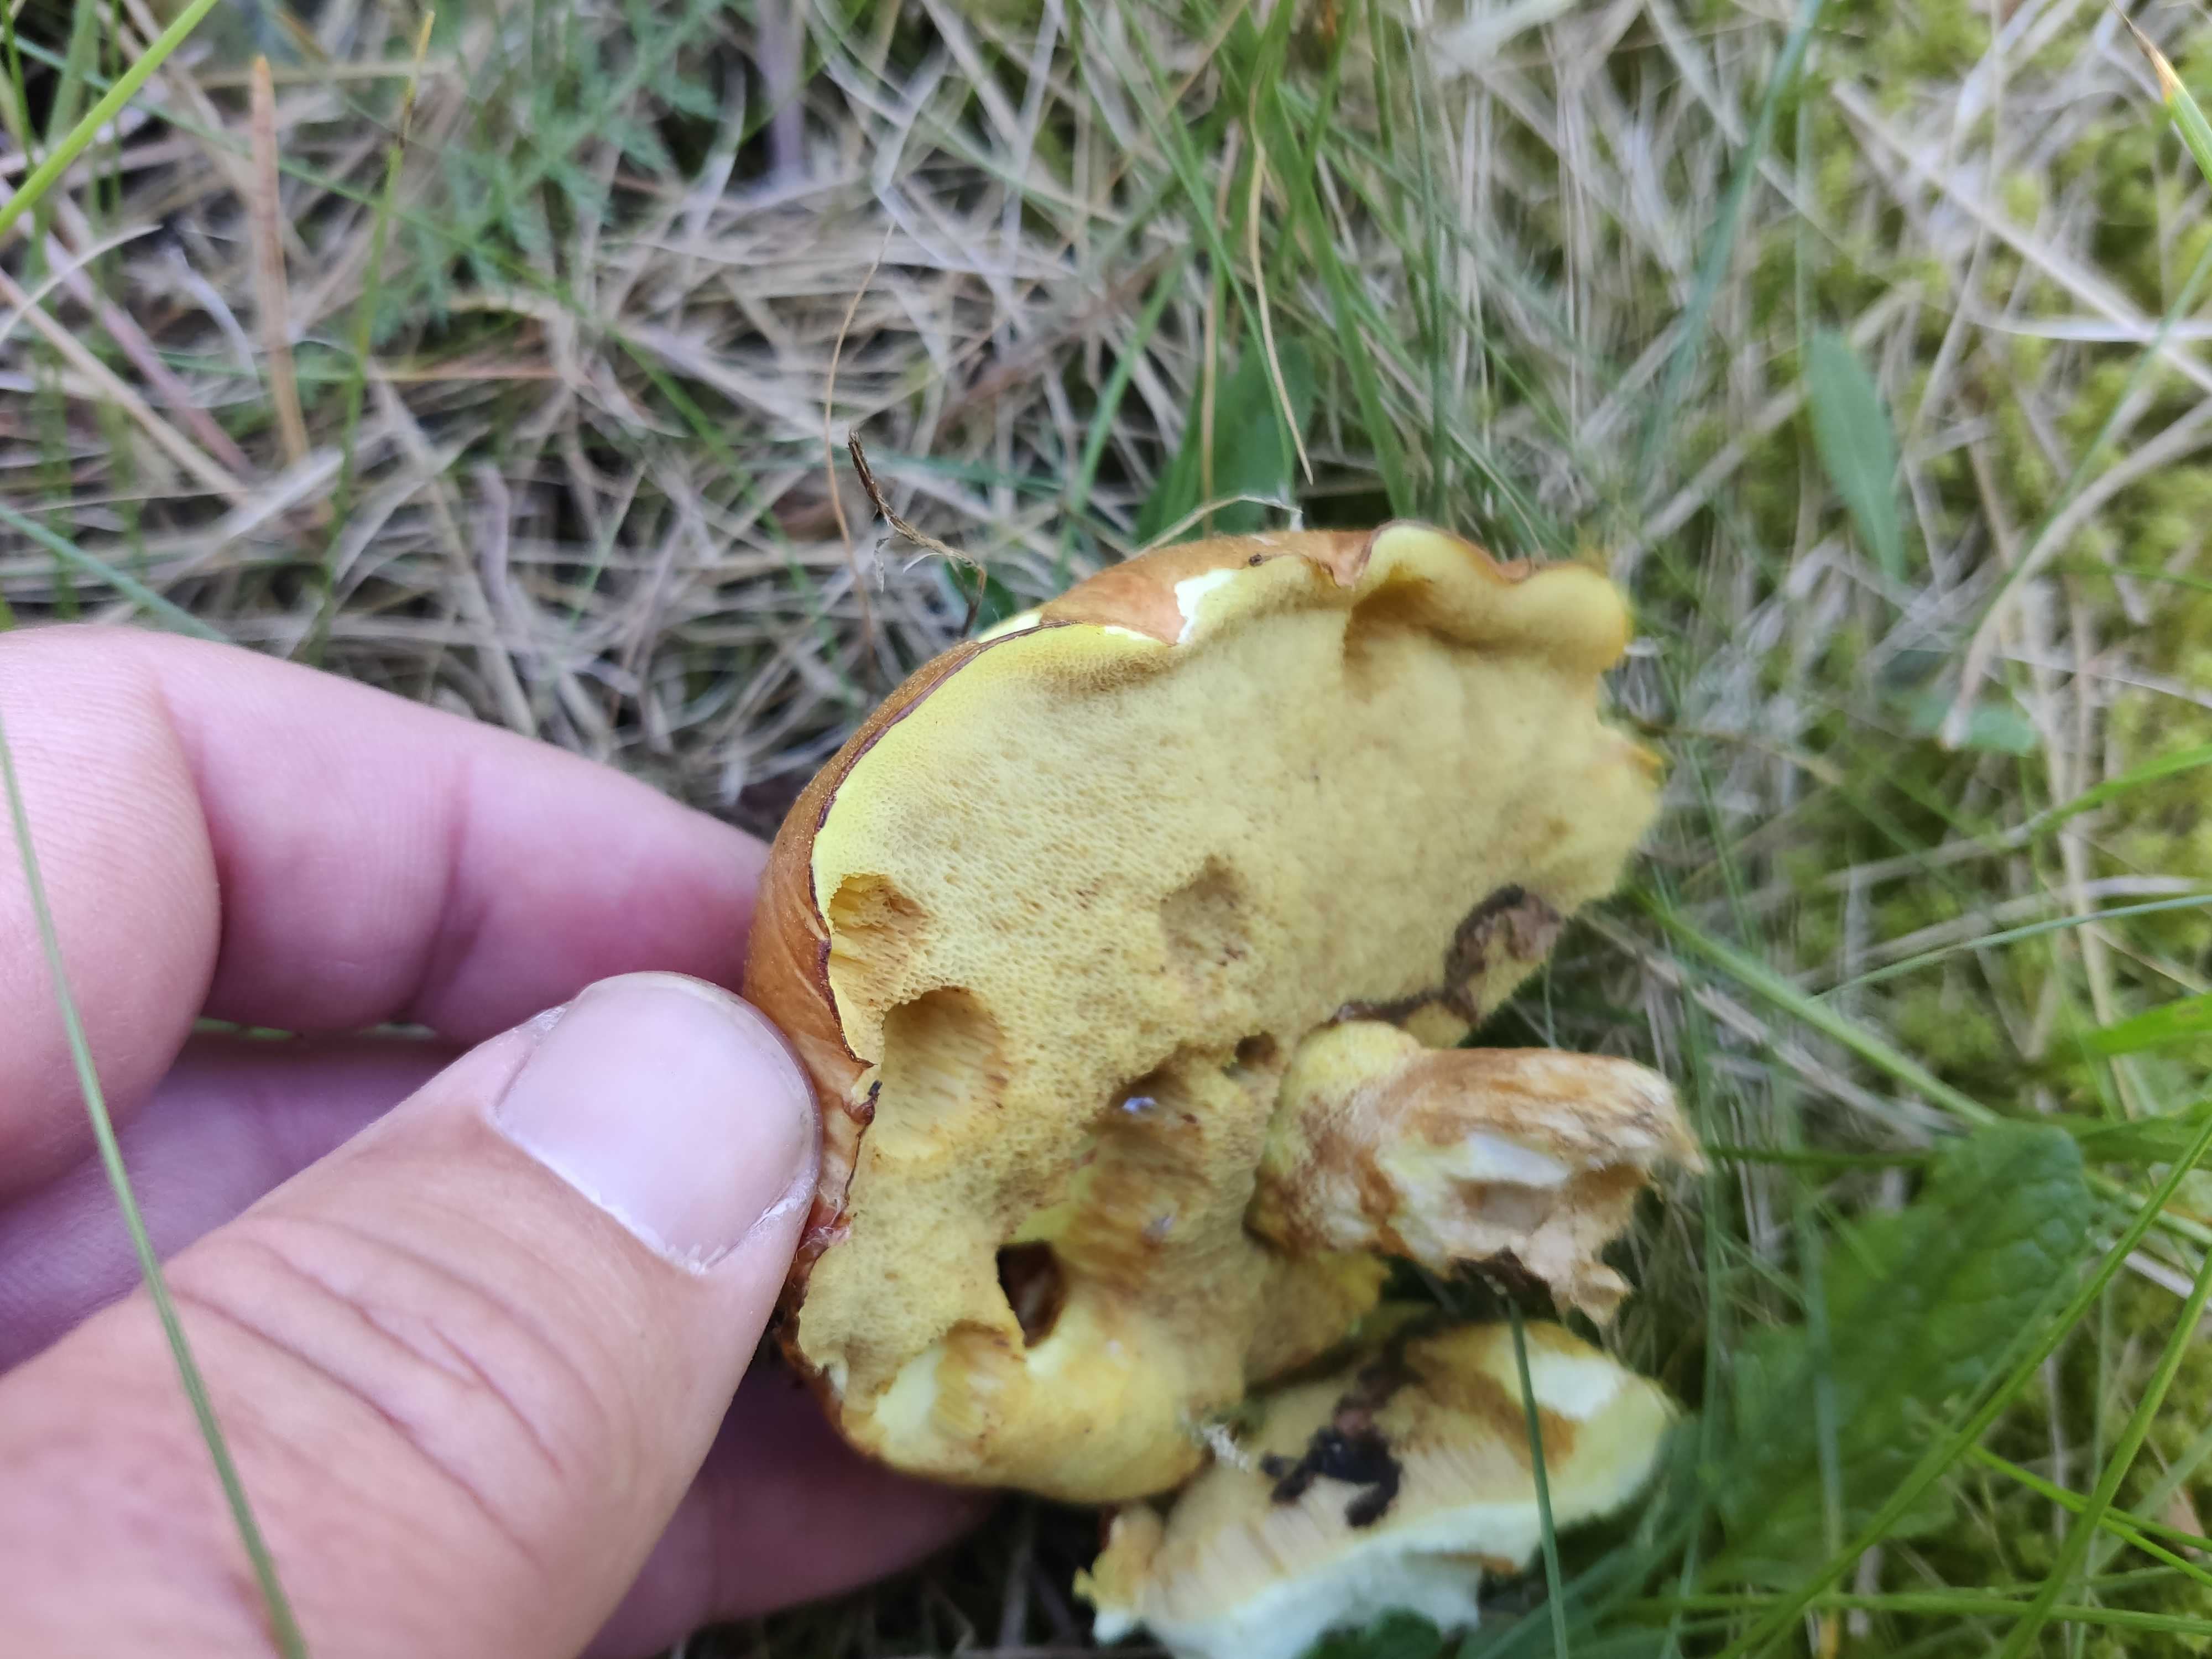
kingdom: Fungi
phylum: Basidiomycota
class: Agaricomycetes
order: Boletales
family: Suillaceae
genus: Suillus
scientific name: Suillus
